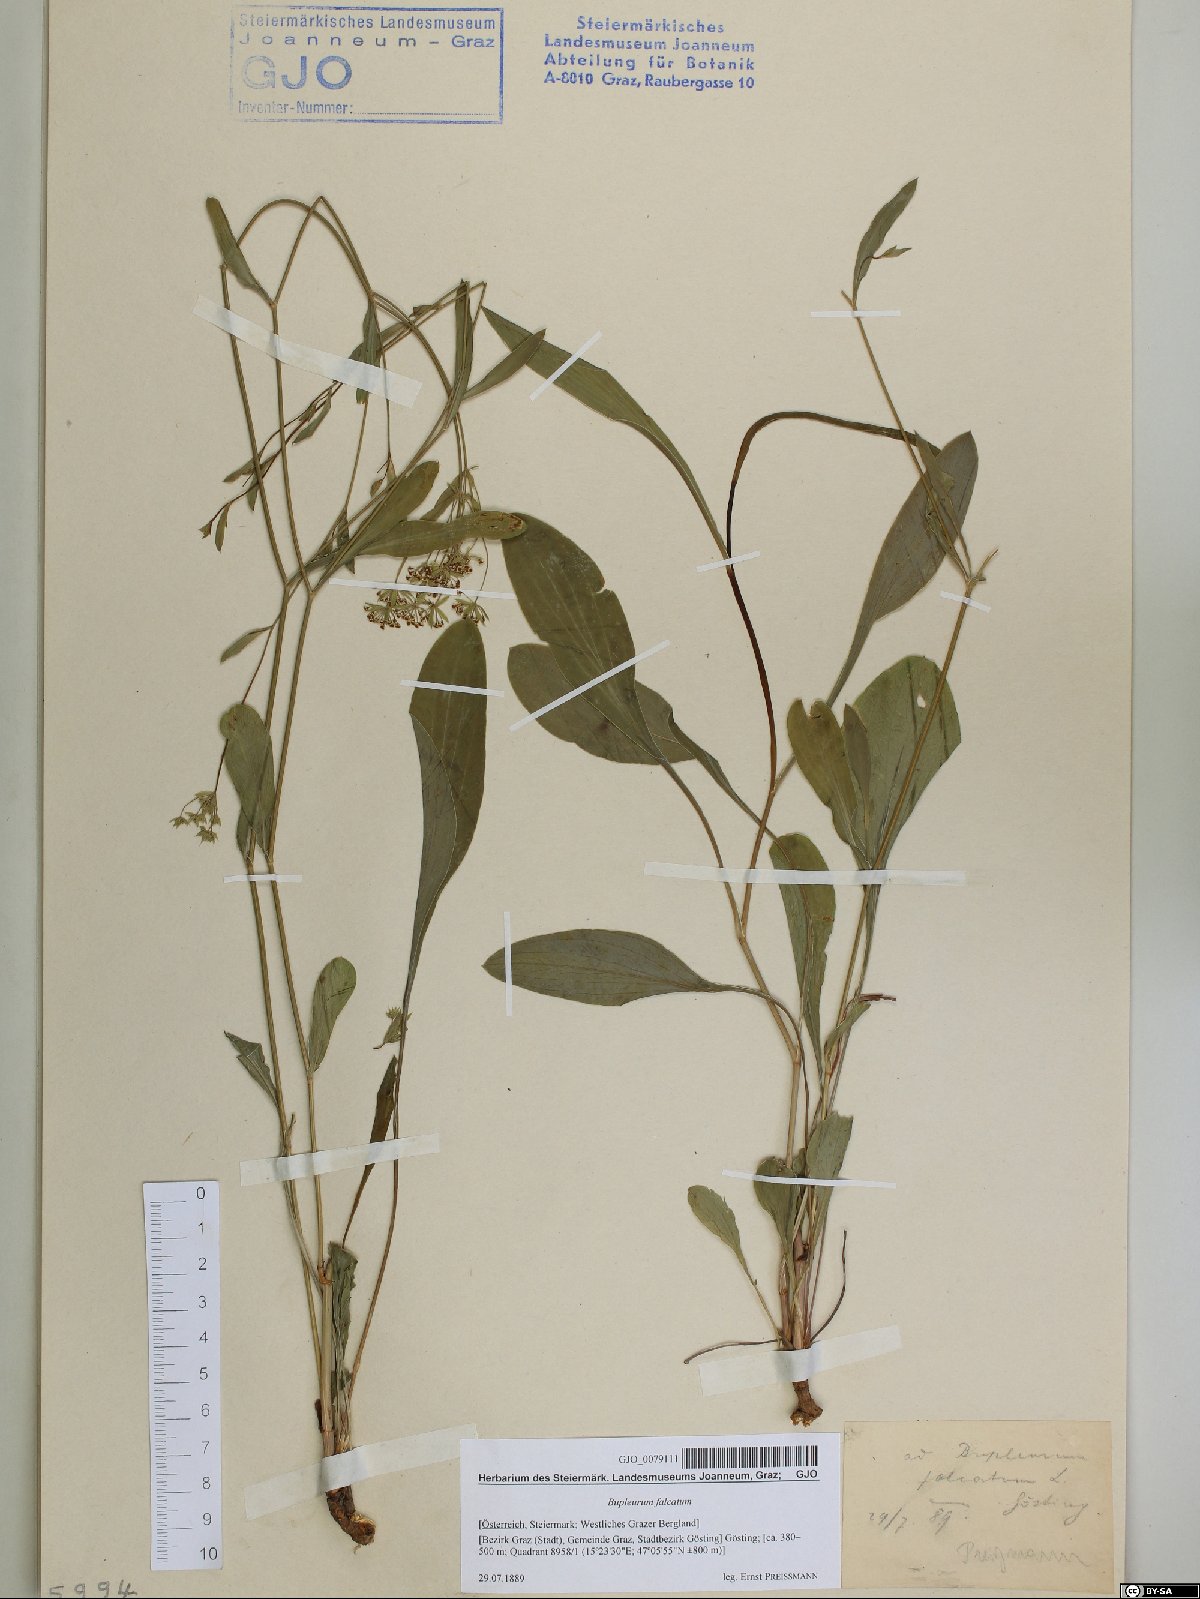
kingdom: Plantae
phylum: Tracheophyta
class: Magnoliopsida
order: Apiales
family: Apiaceae
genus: Bupleurum
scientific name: Bupleurum falcatum
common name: Sickle-leaved hare's-ear
